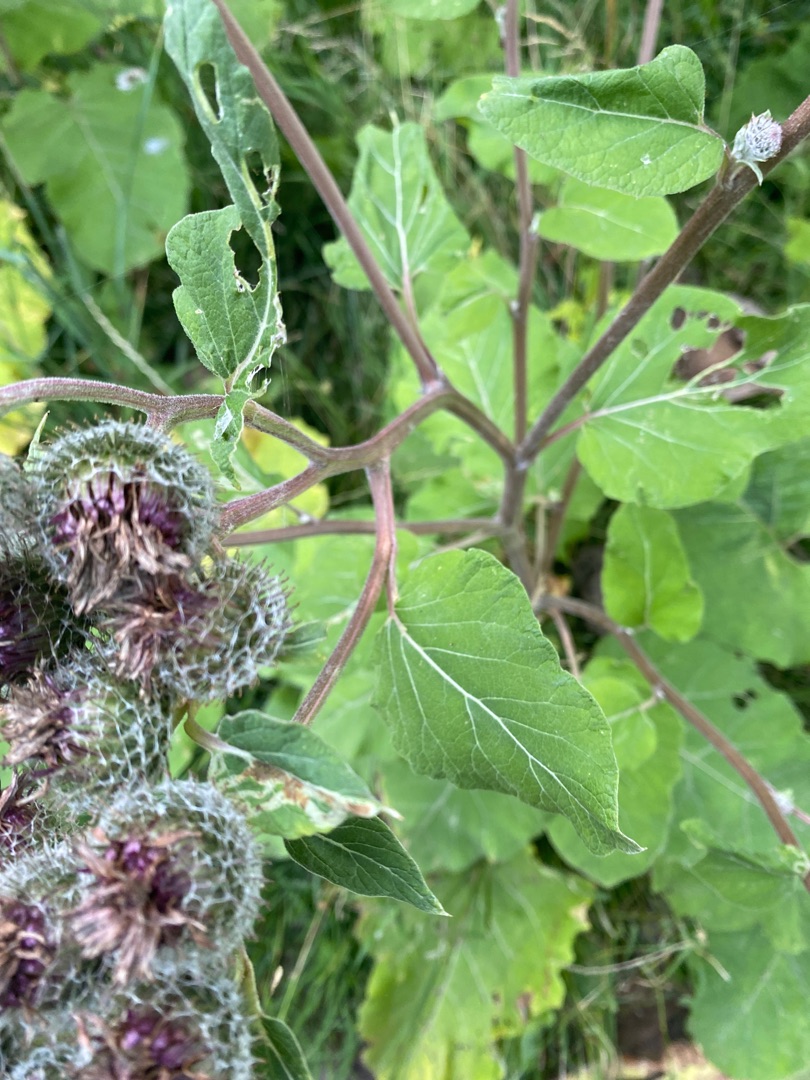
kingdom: Plantae
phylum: Tracheophyta
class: Magnoliopsida
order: Asterales
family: Asteraceae
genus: Arctium
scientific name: Arctium tomentosum
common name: Filtet burre
